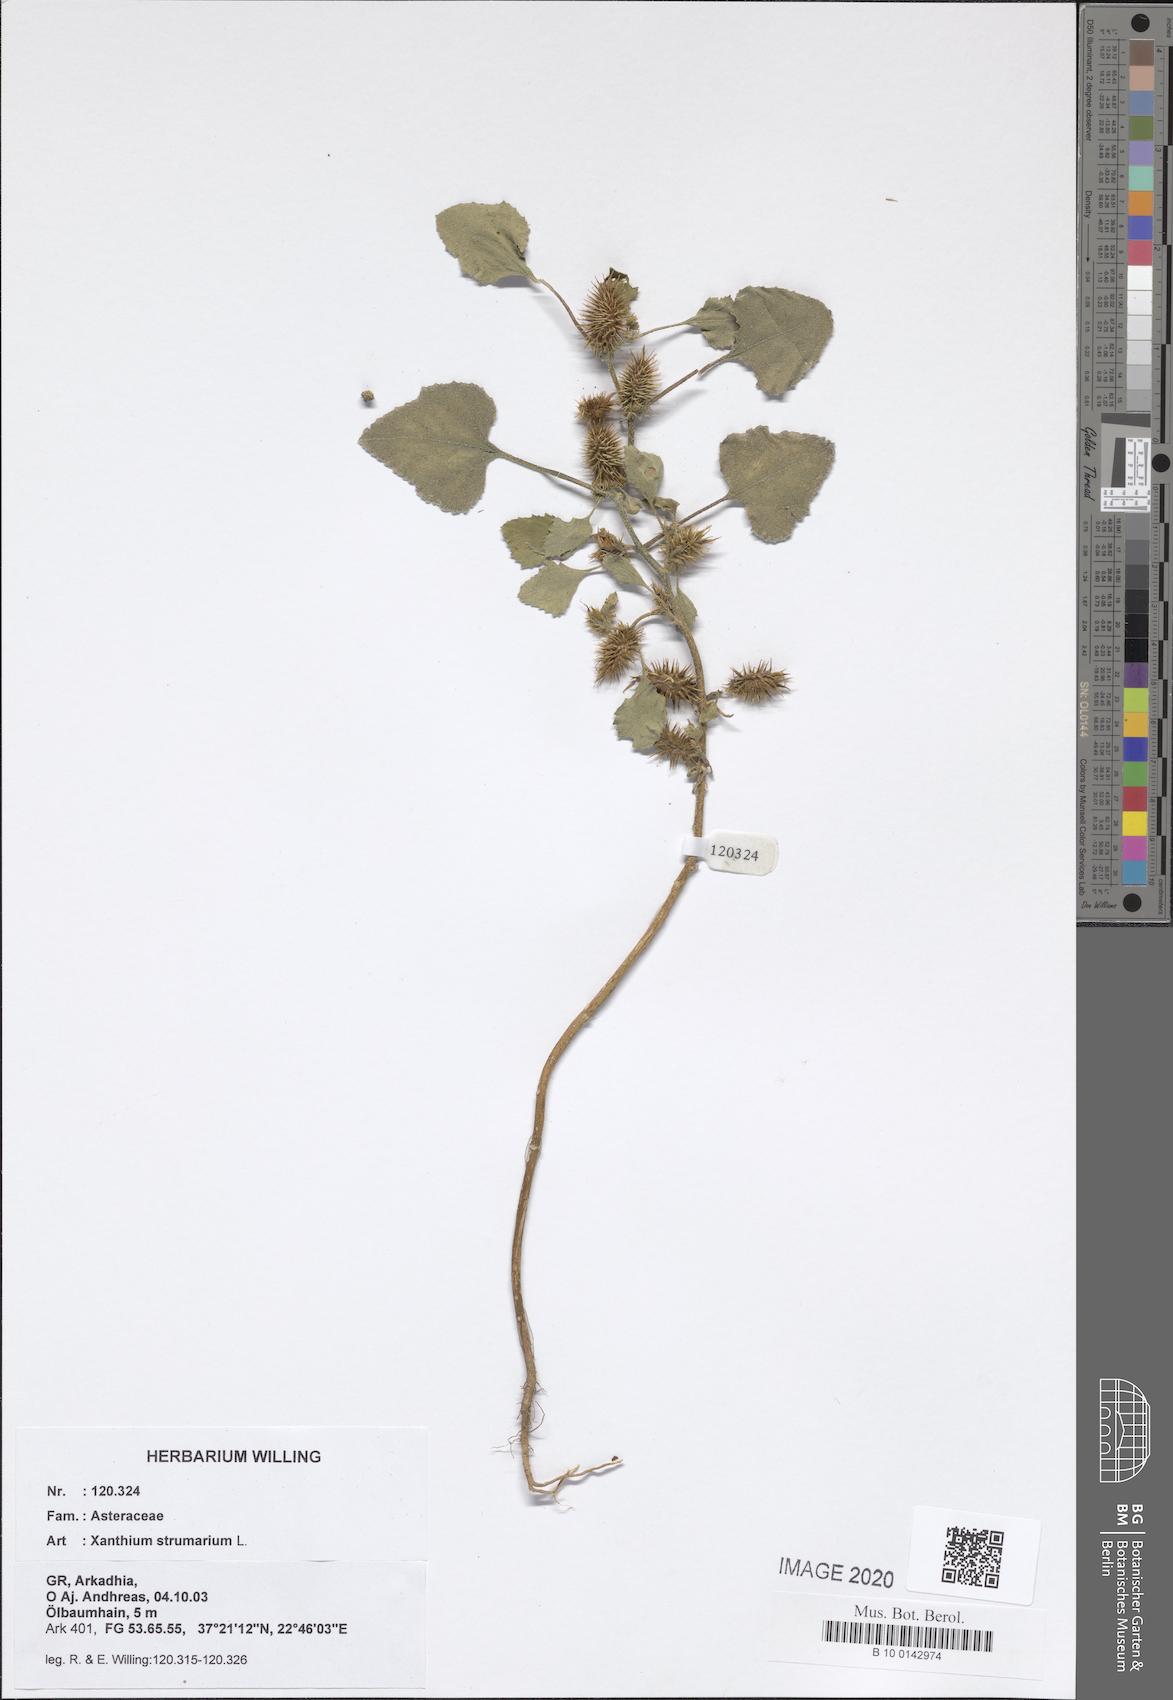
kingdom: Plantae
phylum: Tracheophyta
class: Magnoliopsida
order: Asterales
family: Asteraceae
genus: Xanthium
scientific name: Xanthium strumarium
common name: Rough cocklebur
